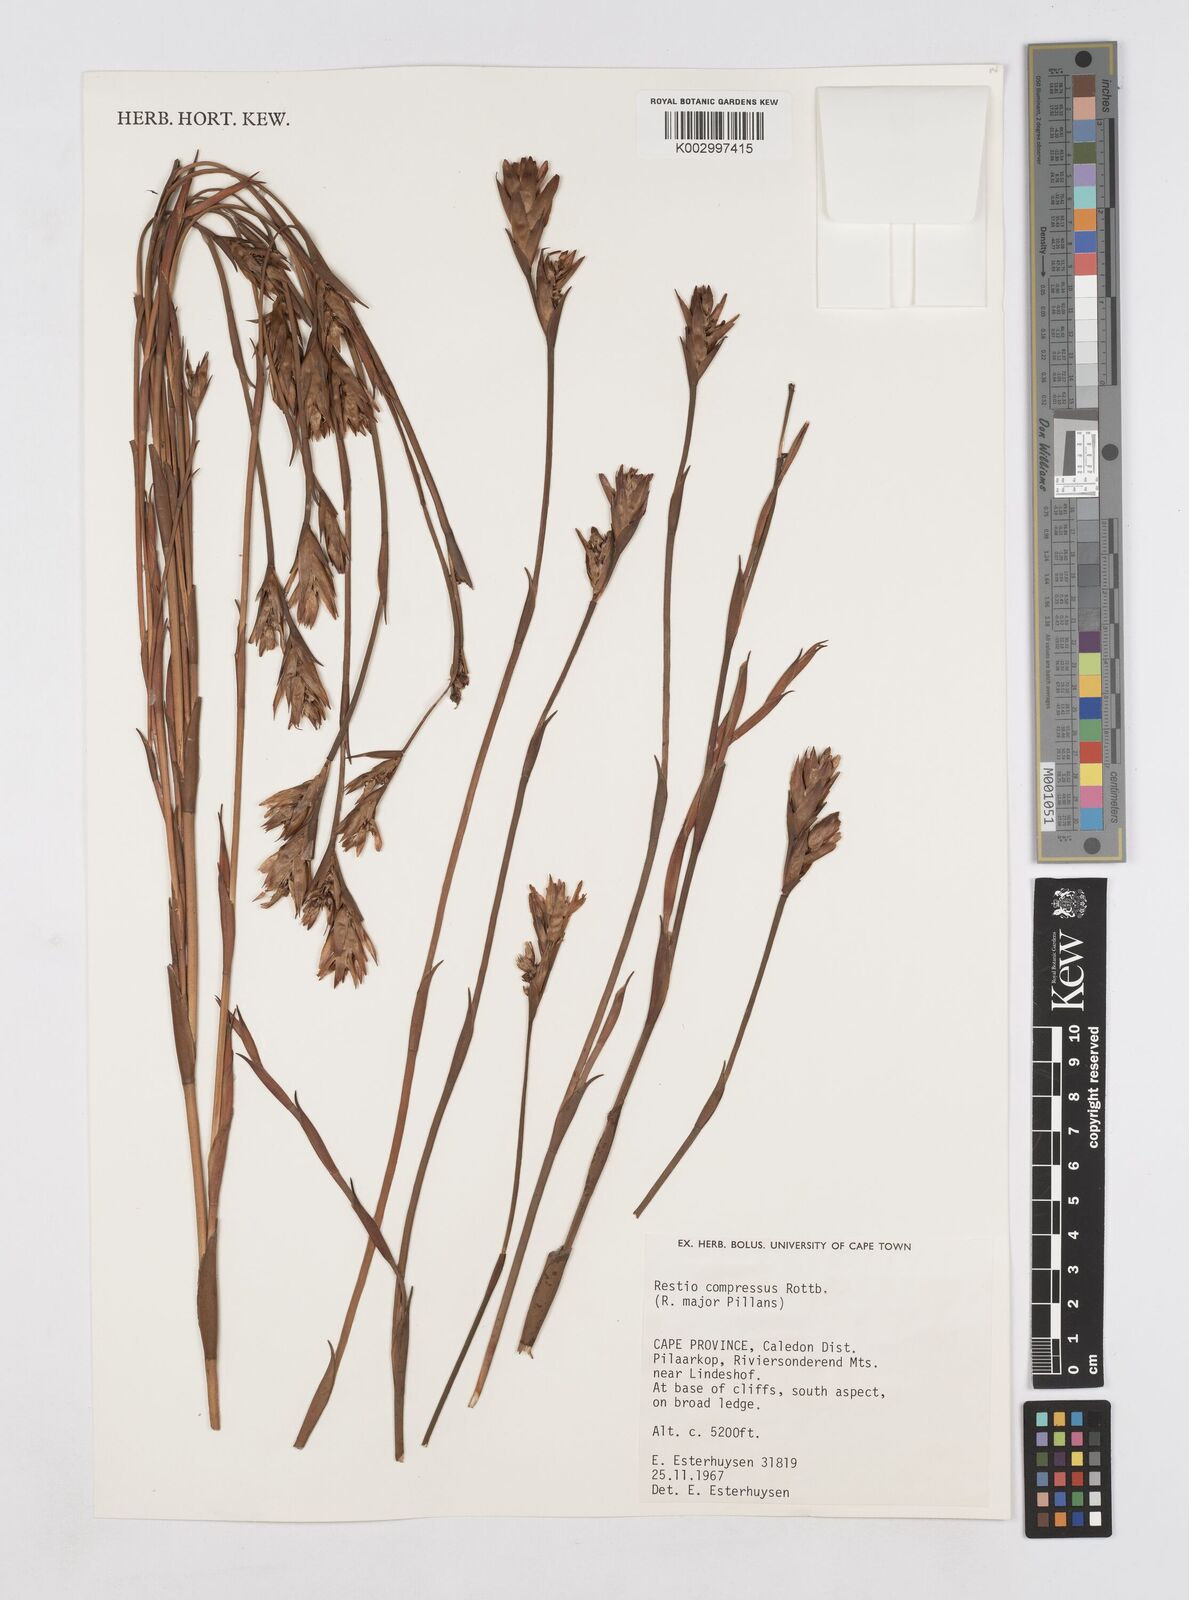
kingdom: Plantae
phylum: Tracheophyta
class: Liliopsida
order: Poales
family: Restionaceae
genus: Platycaulos
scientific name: Platycaulos compressus
